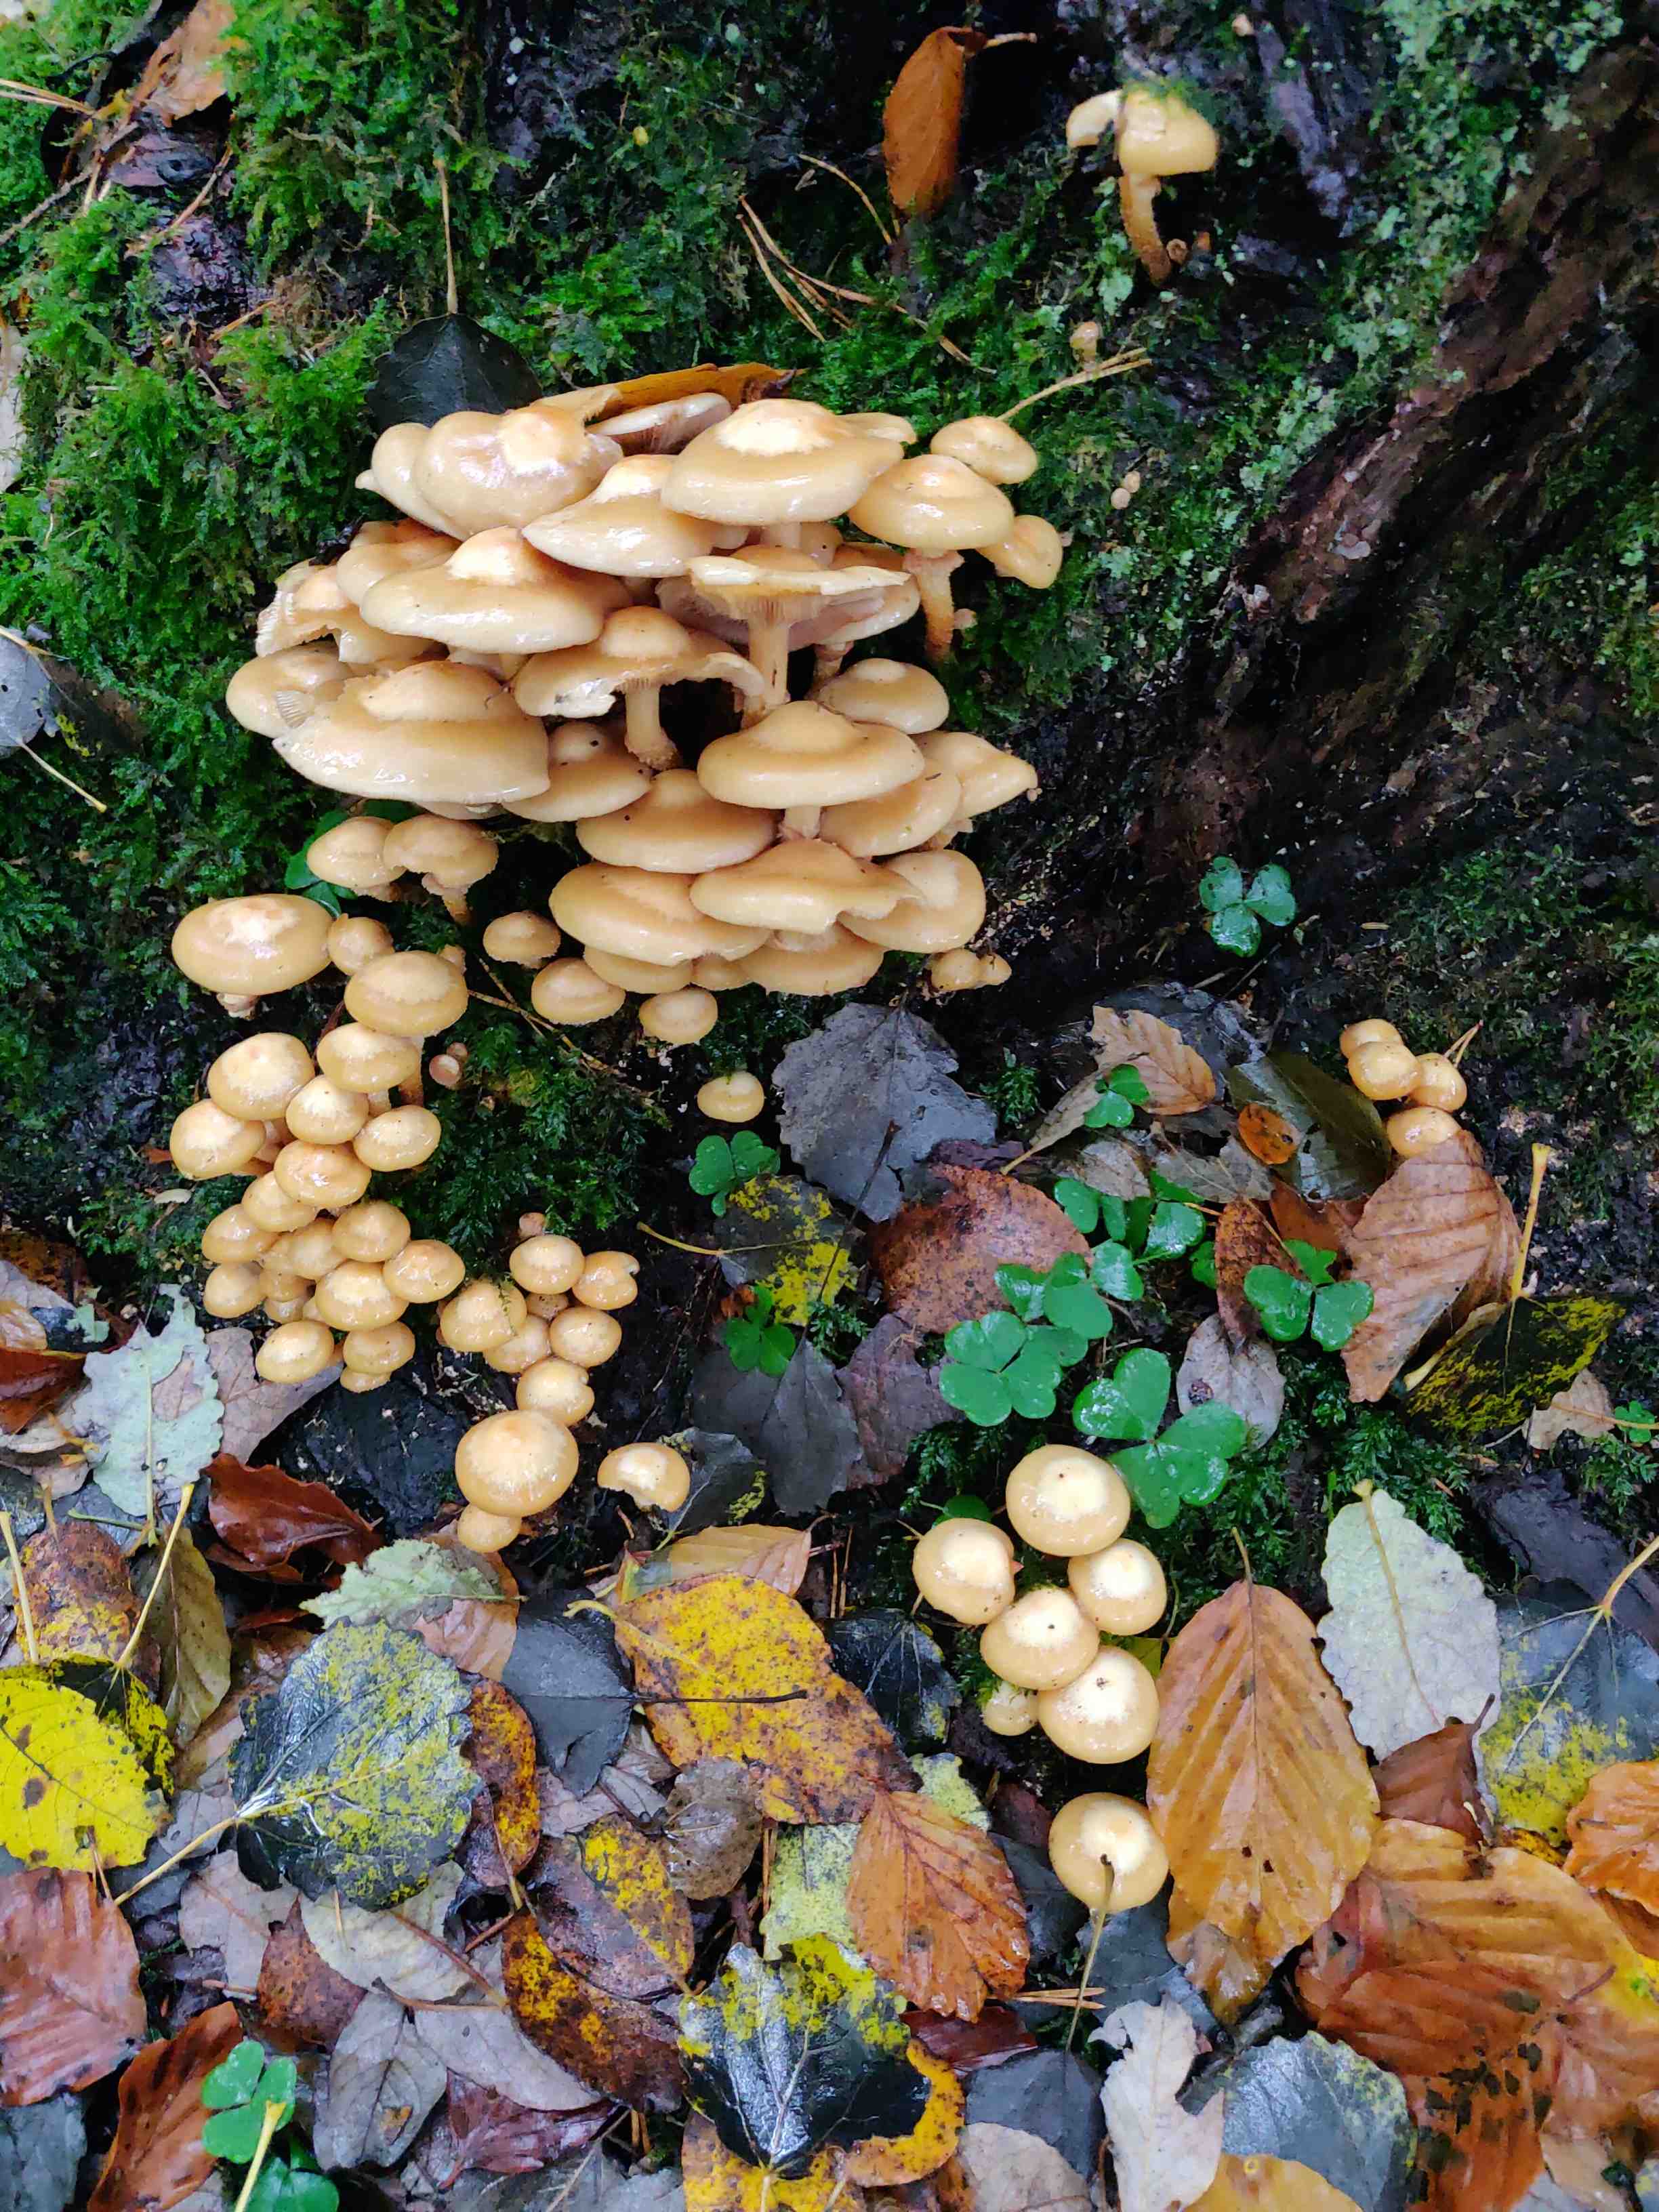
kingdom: Fungi
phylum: Basidiomycota
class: Agaricomycetes
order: Agaricales
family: Strophariaceae
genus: Kuehneromyces
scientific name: Kuehneromyces mutabilis
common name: foranderlig skælhat
